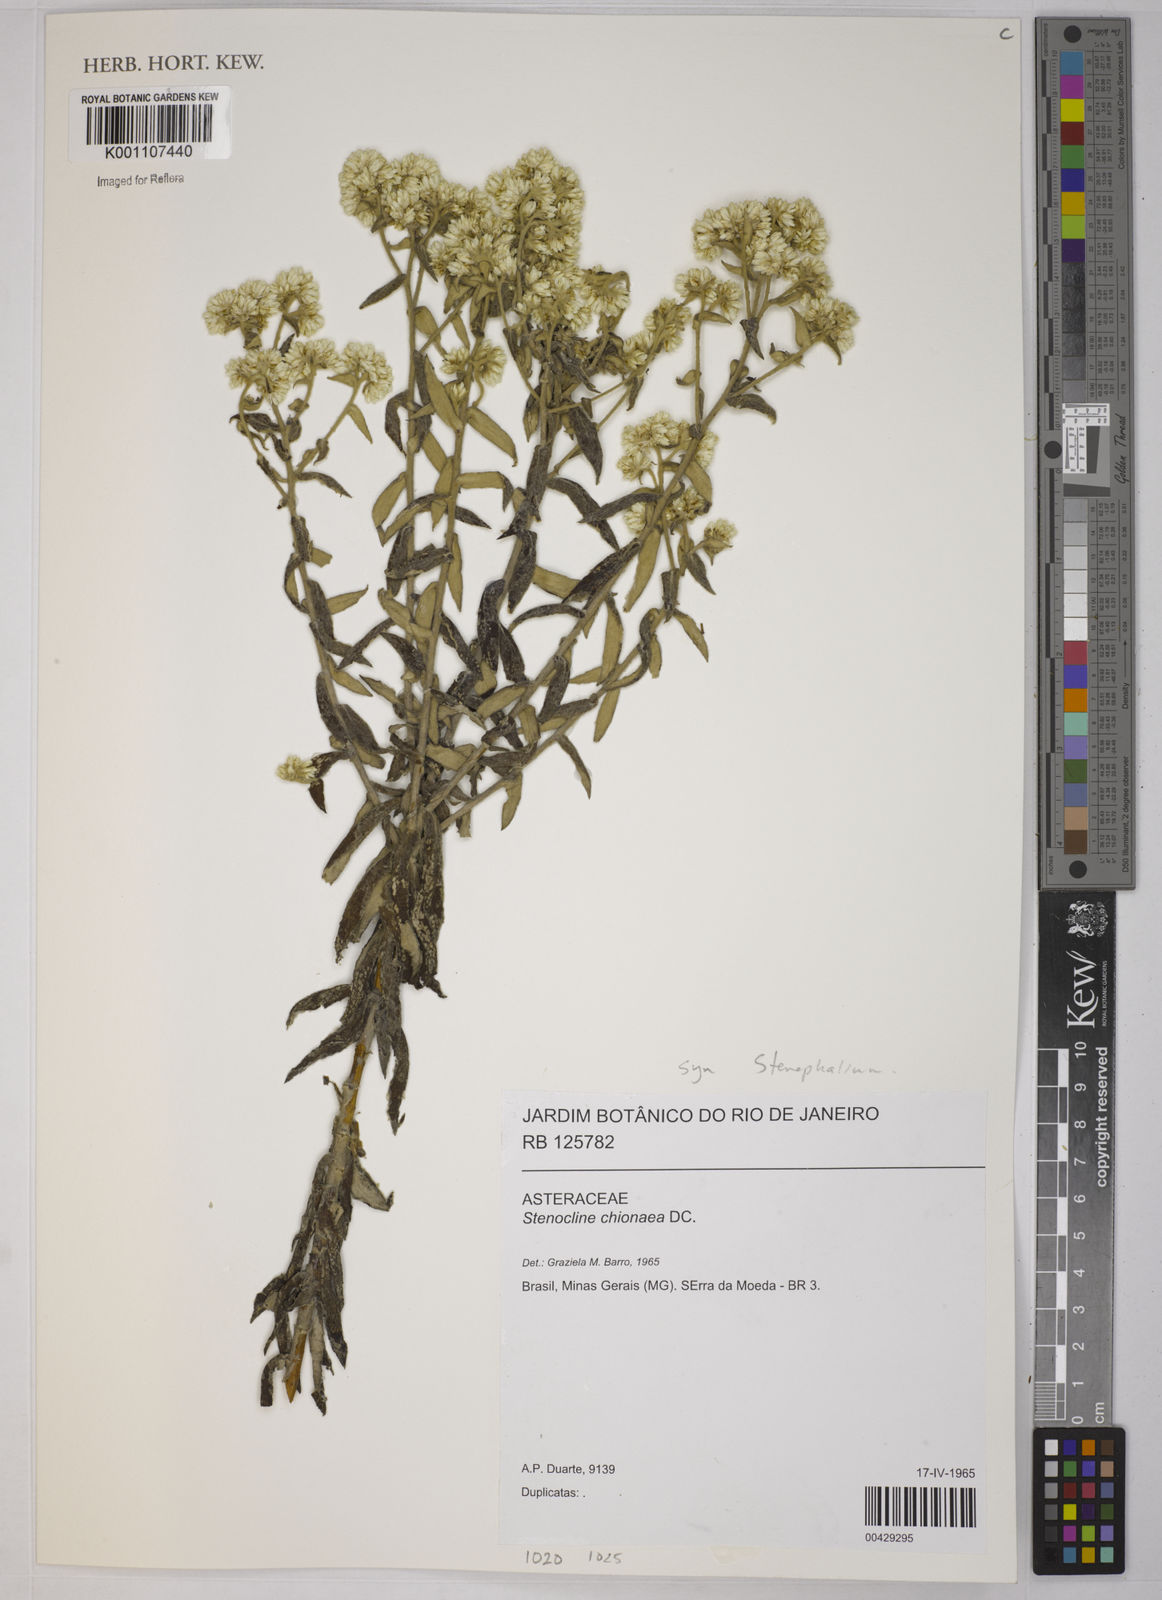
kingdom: Plantae
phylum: Tracheophyta
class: Magnoliopsida
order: Asterales
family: Asteraceae
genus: Achyrocline
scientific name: Achyrocline chionaea
